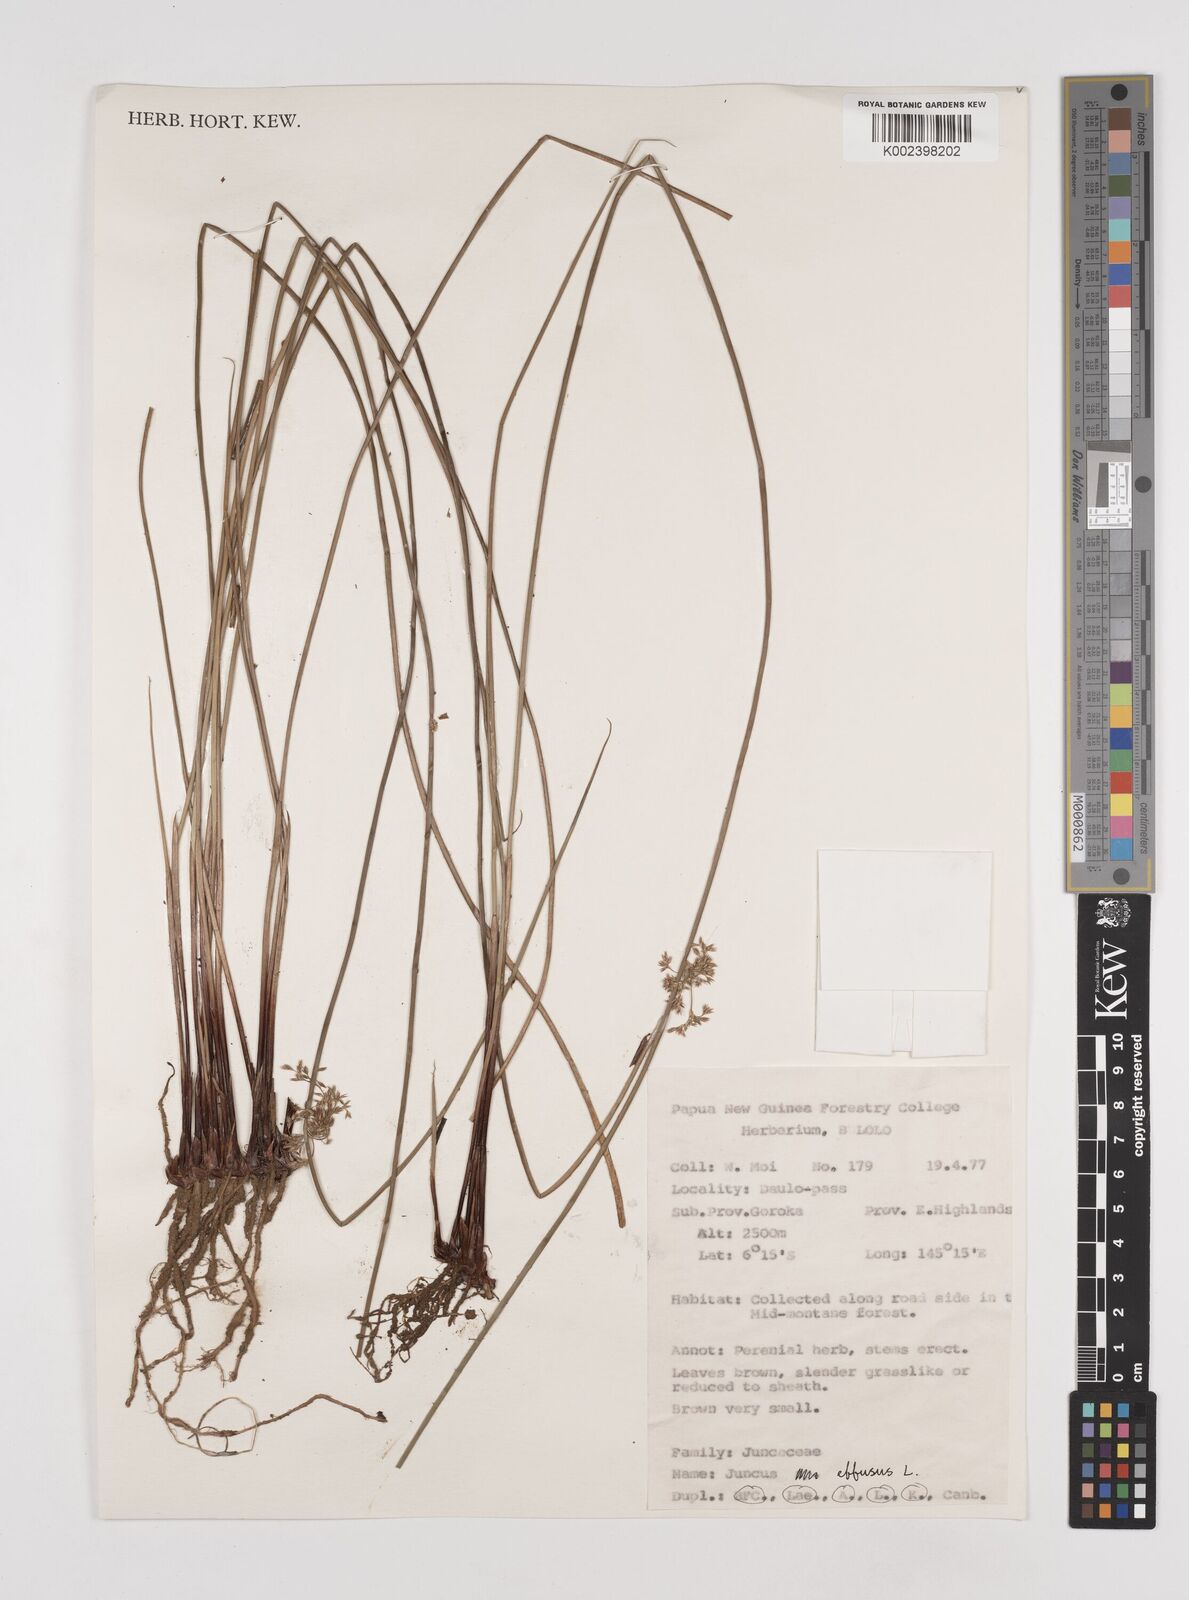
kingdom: Plantae
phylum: Tracheophyta
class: Liliopsida
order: Poales
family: Juncaceae
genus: Juncus
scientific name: Juncus decipiens
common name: Lamp rush
